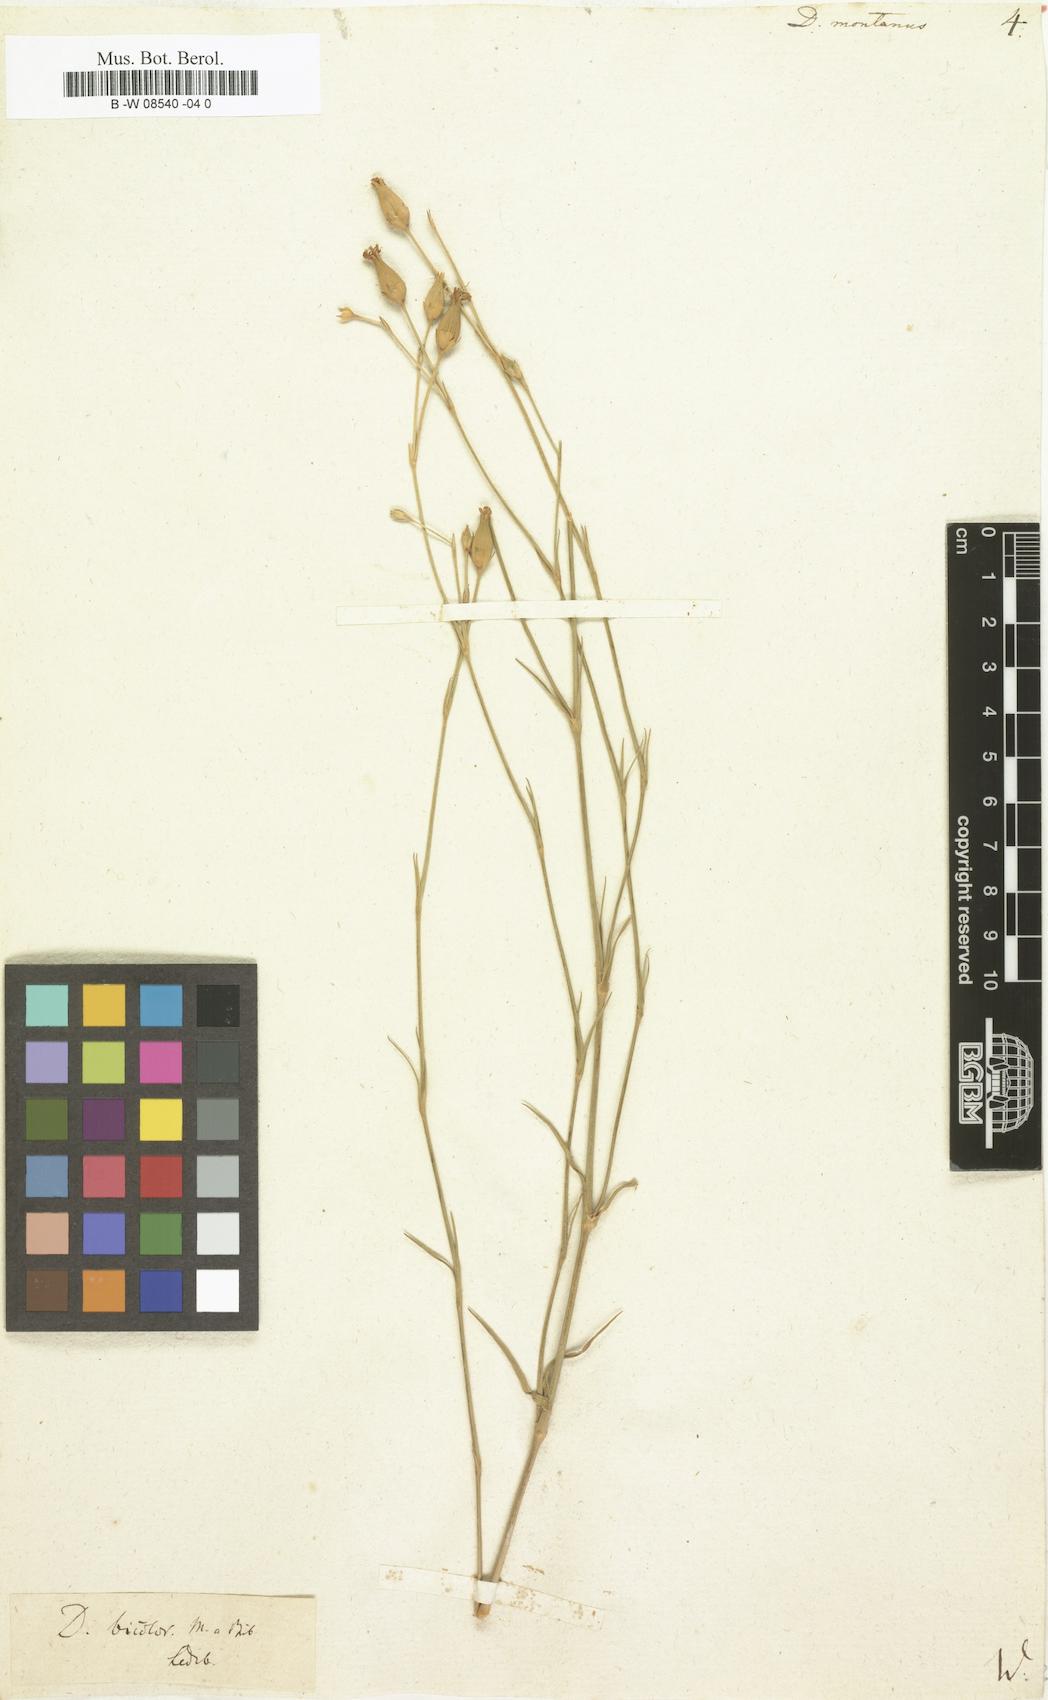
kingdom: Plantae
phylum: Tracheophyta
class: Magnoliopsida
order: Caryophyllales
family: Caryophyllaceae
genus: Dianthus
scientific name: Dianthus
